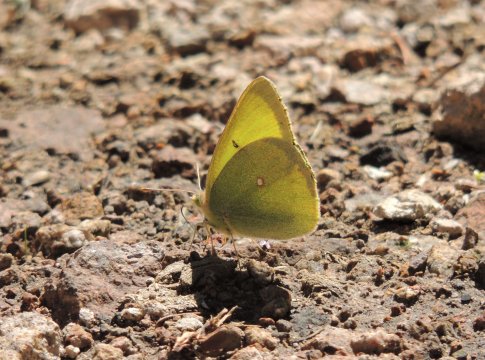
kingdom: Animalia
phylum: Arthropoda
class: Insecta
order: Lepidoptera
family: Pieridae
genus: Colias
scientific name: Colias alexandra
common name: Queen Alexandra's Sulphur
